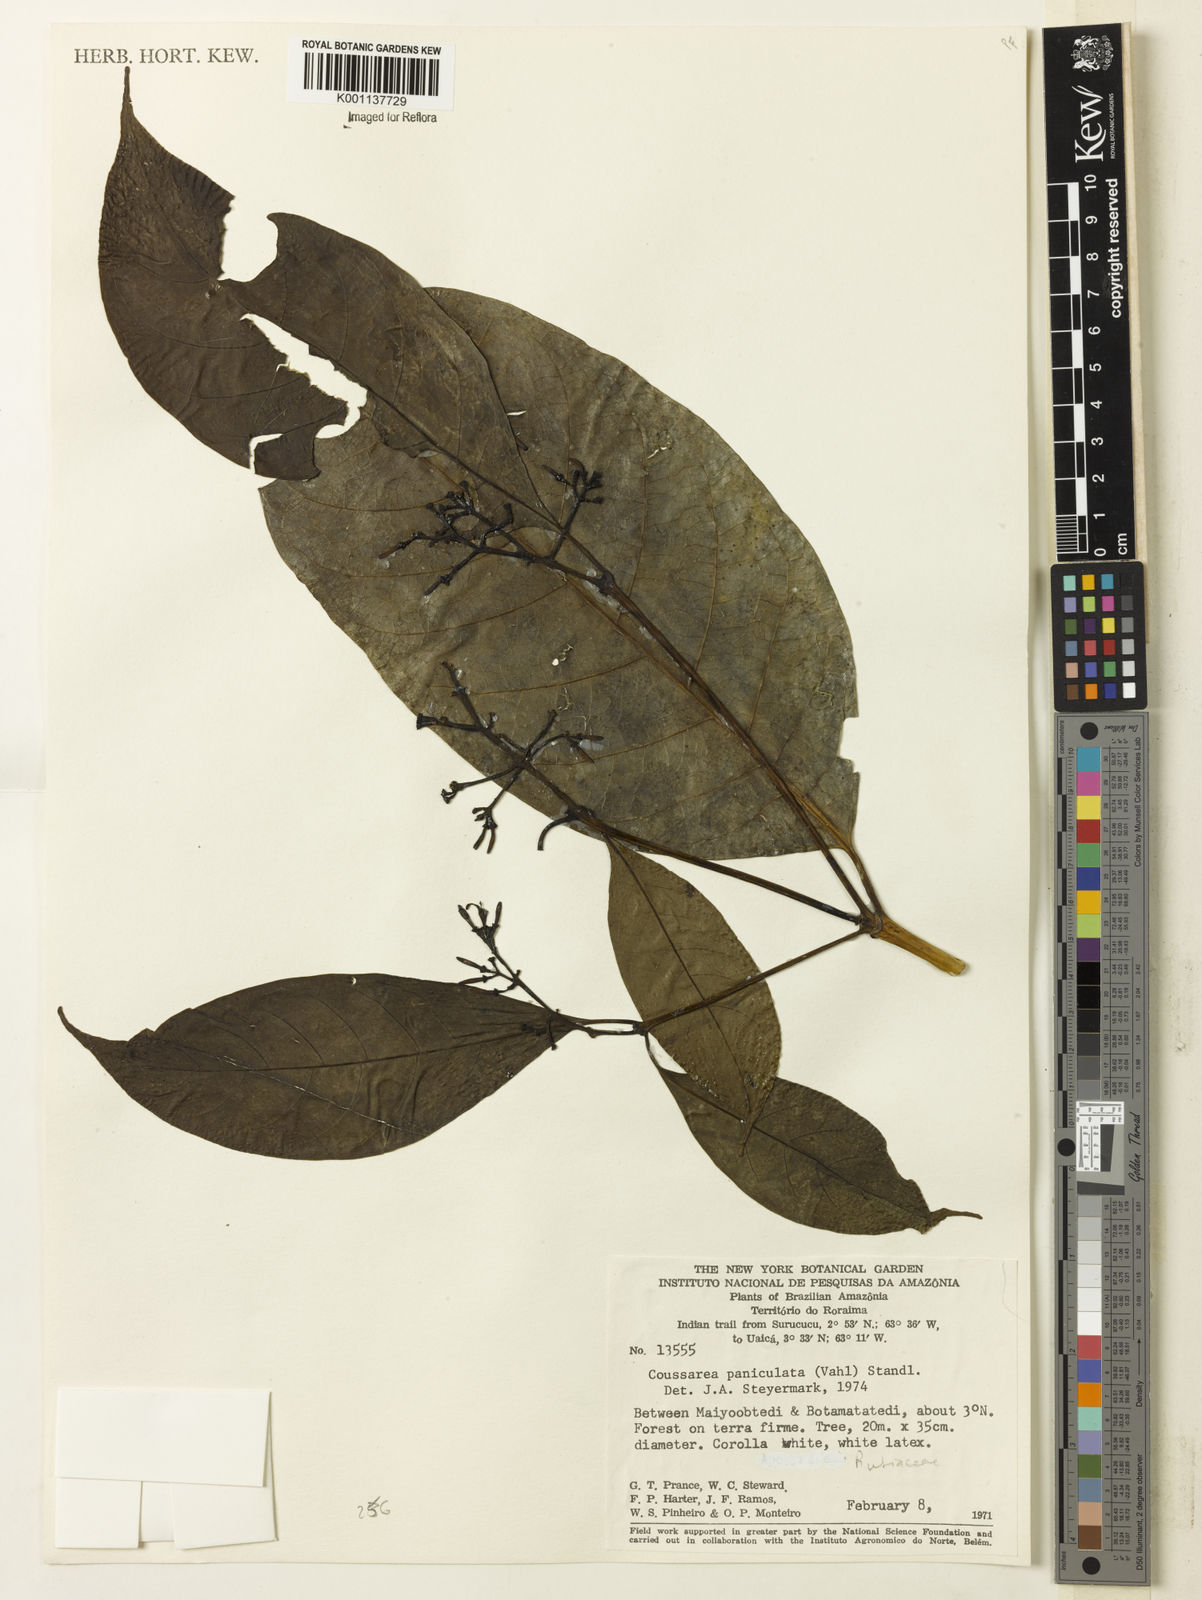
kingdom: Plantae
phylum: Tracheophyta
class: Magnoliopsida
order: Gentianales
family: Rubiaceae
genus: Coussarea
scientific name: Coussarea paniculata
